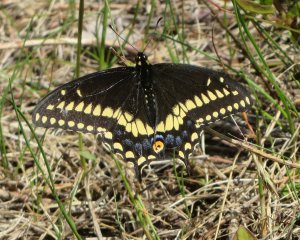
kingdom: Animalia
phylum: Arthropoda
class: Insecta
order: Lepidoptera
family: Papilionidae
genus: Papilio
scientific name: Papilio polyxenes
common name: Black Swallowtail
